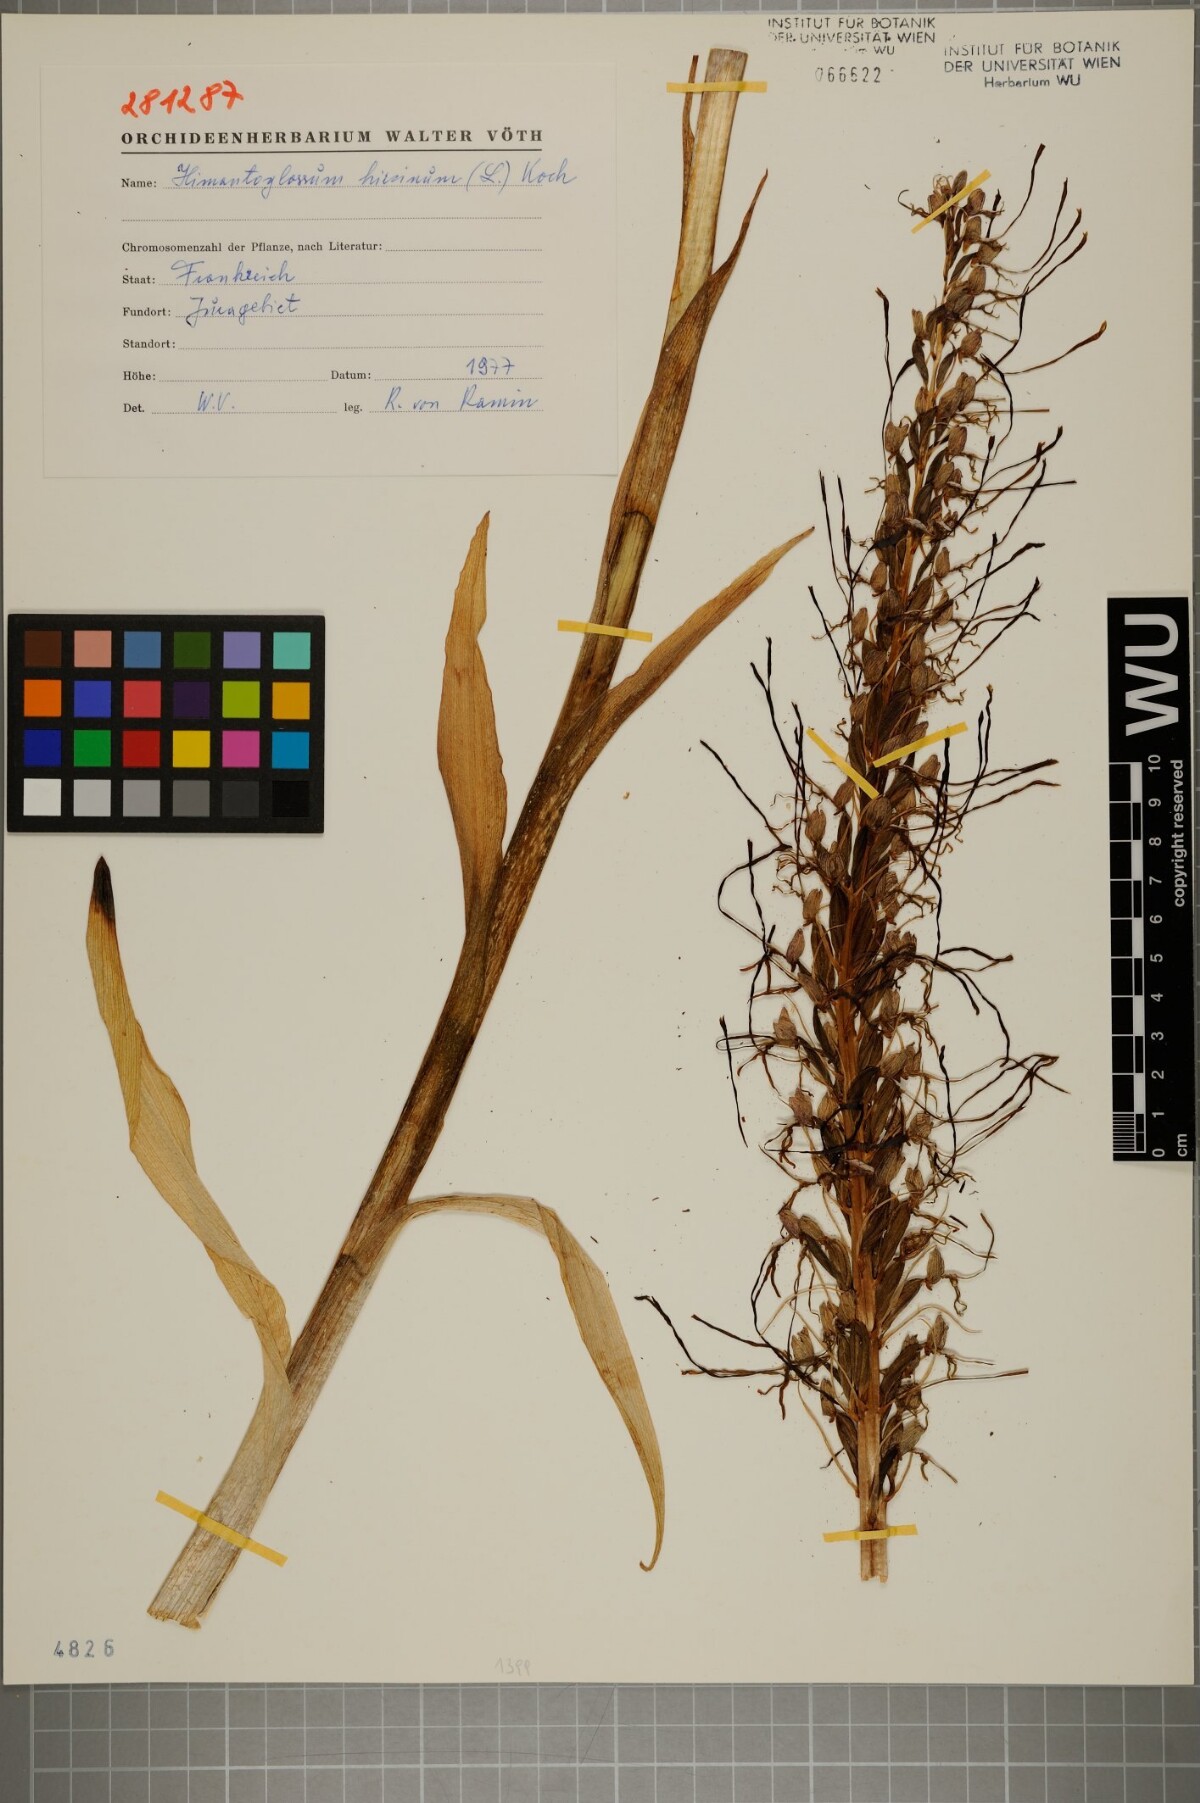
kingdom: Plantae
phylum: Tracheophyta
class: Liliopsida
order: Asparagales
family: Orchidaceae
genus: Himantoglossum
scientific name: Himantoglossum hircinum
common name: Lizard orchid
